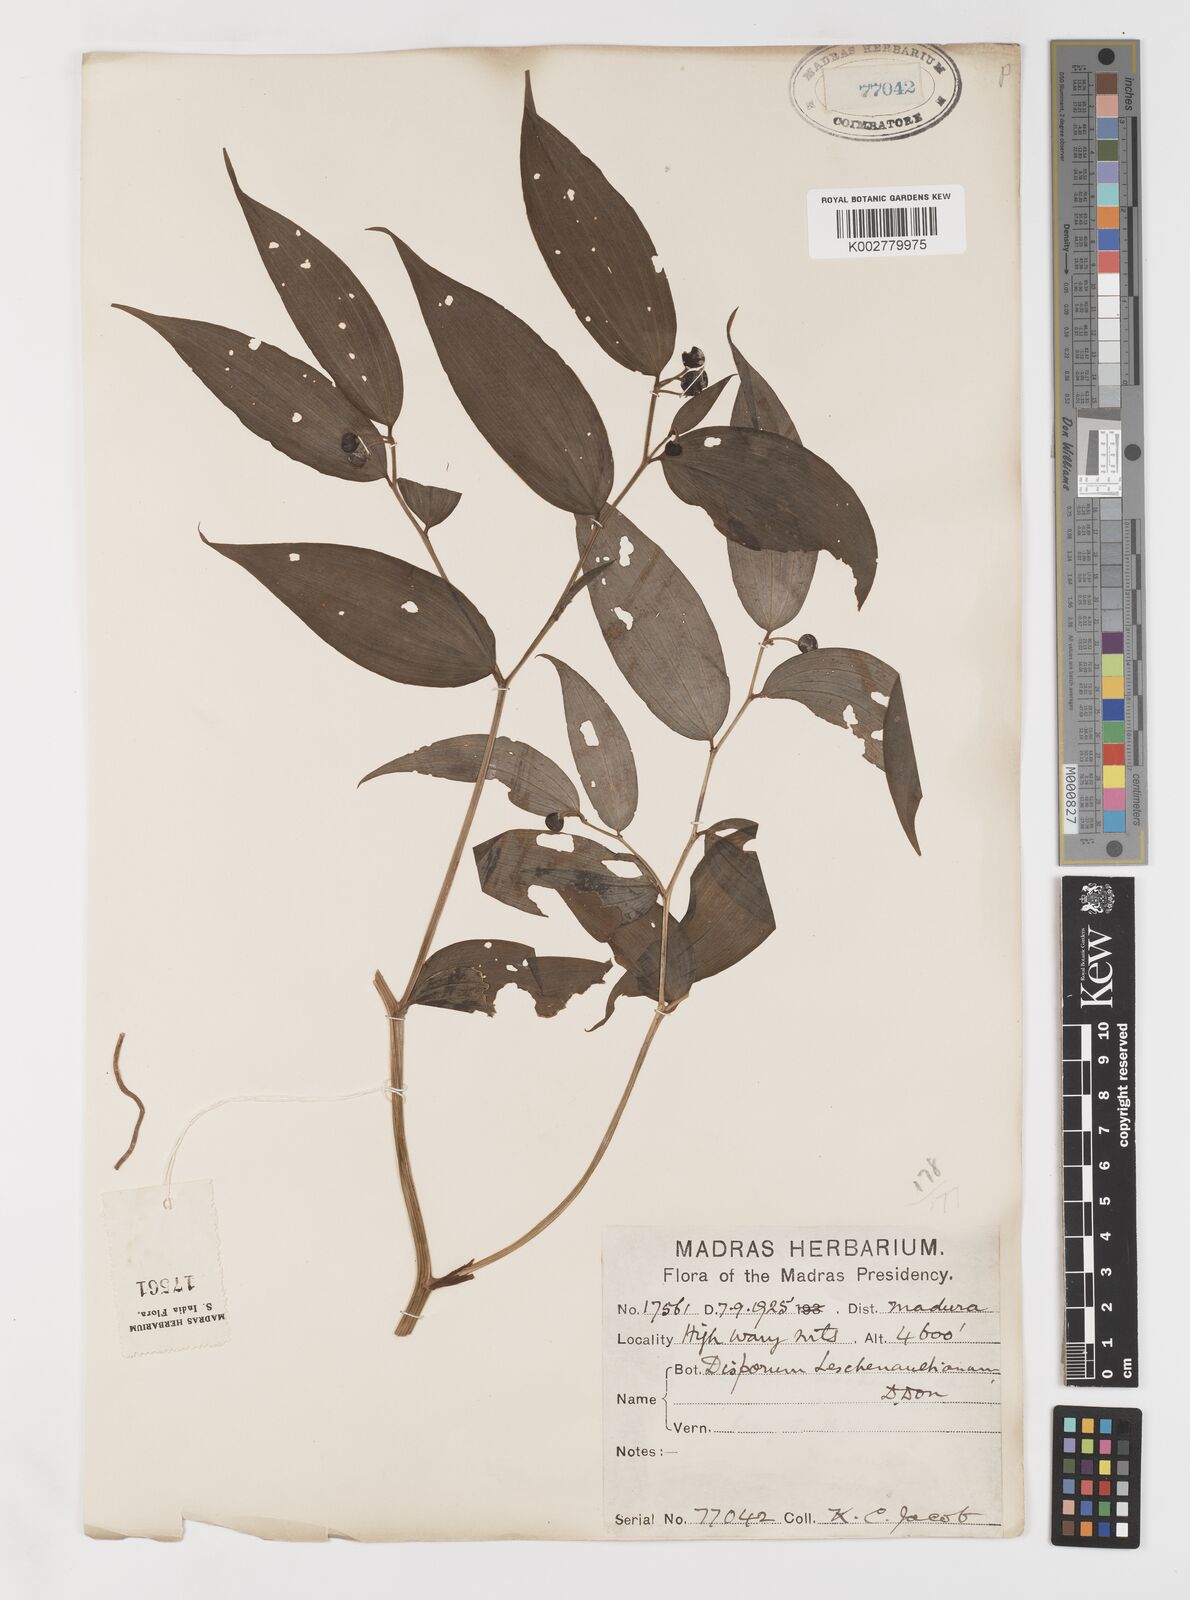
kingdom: Plantae
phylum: Tracheophyta
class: Liliopsida
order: Liliales
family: Colchicaceae
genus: Disporum
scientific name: Disporum cantoniense
